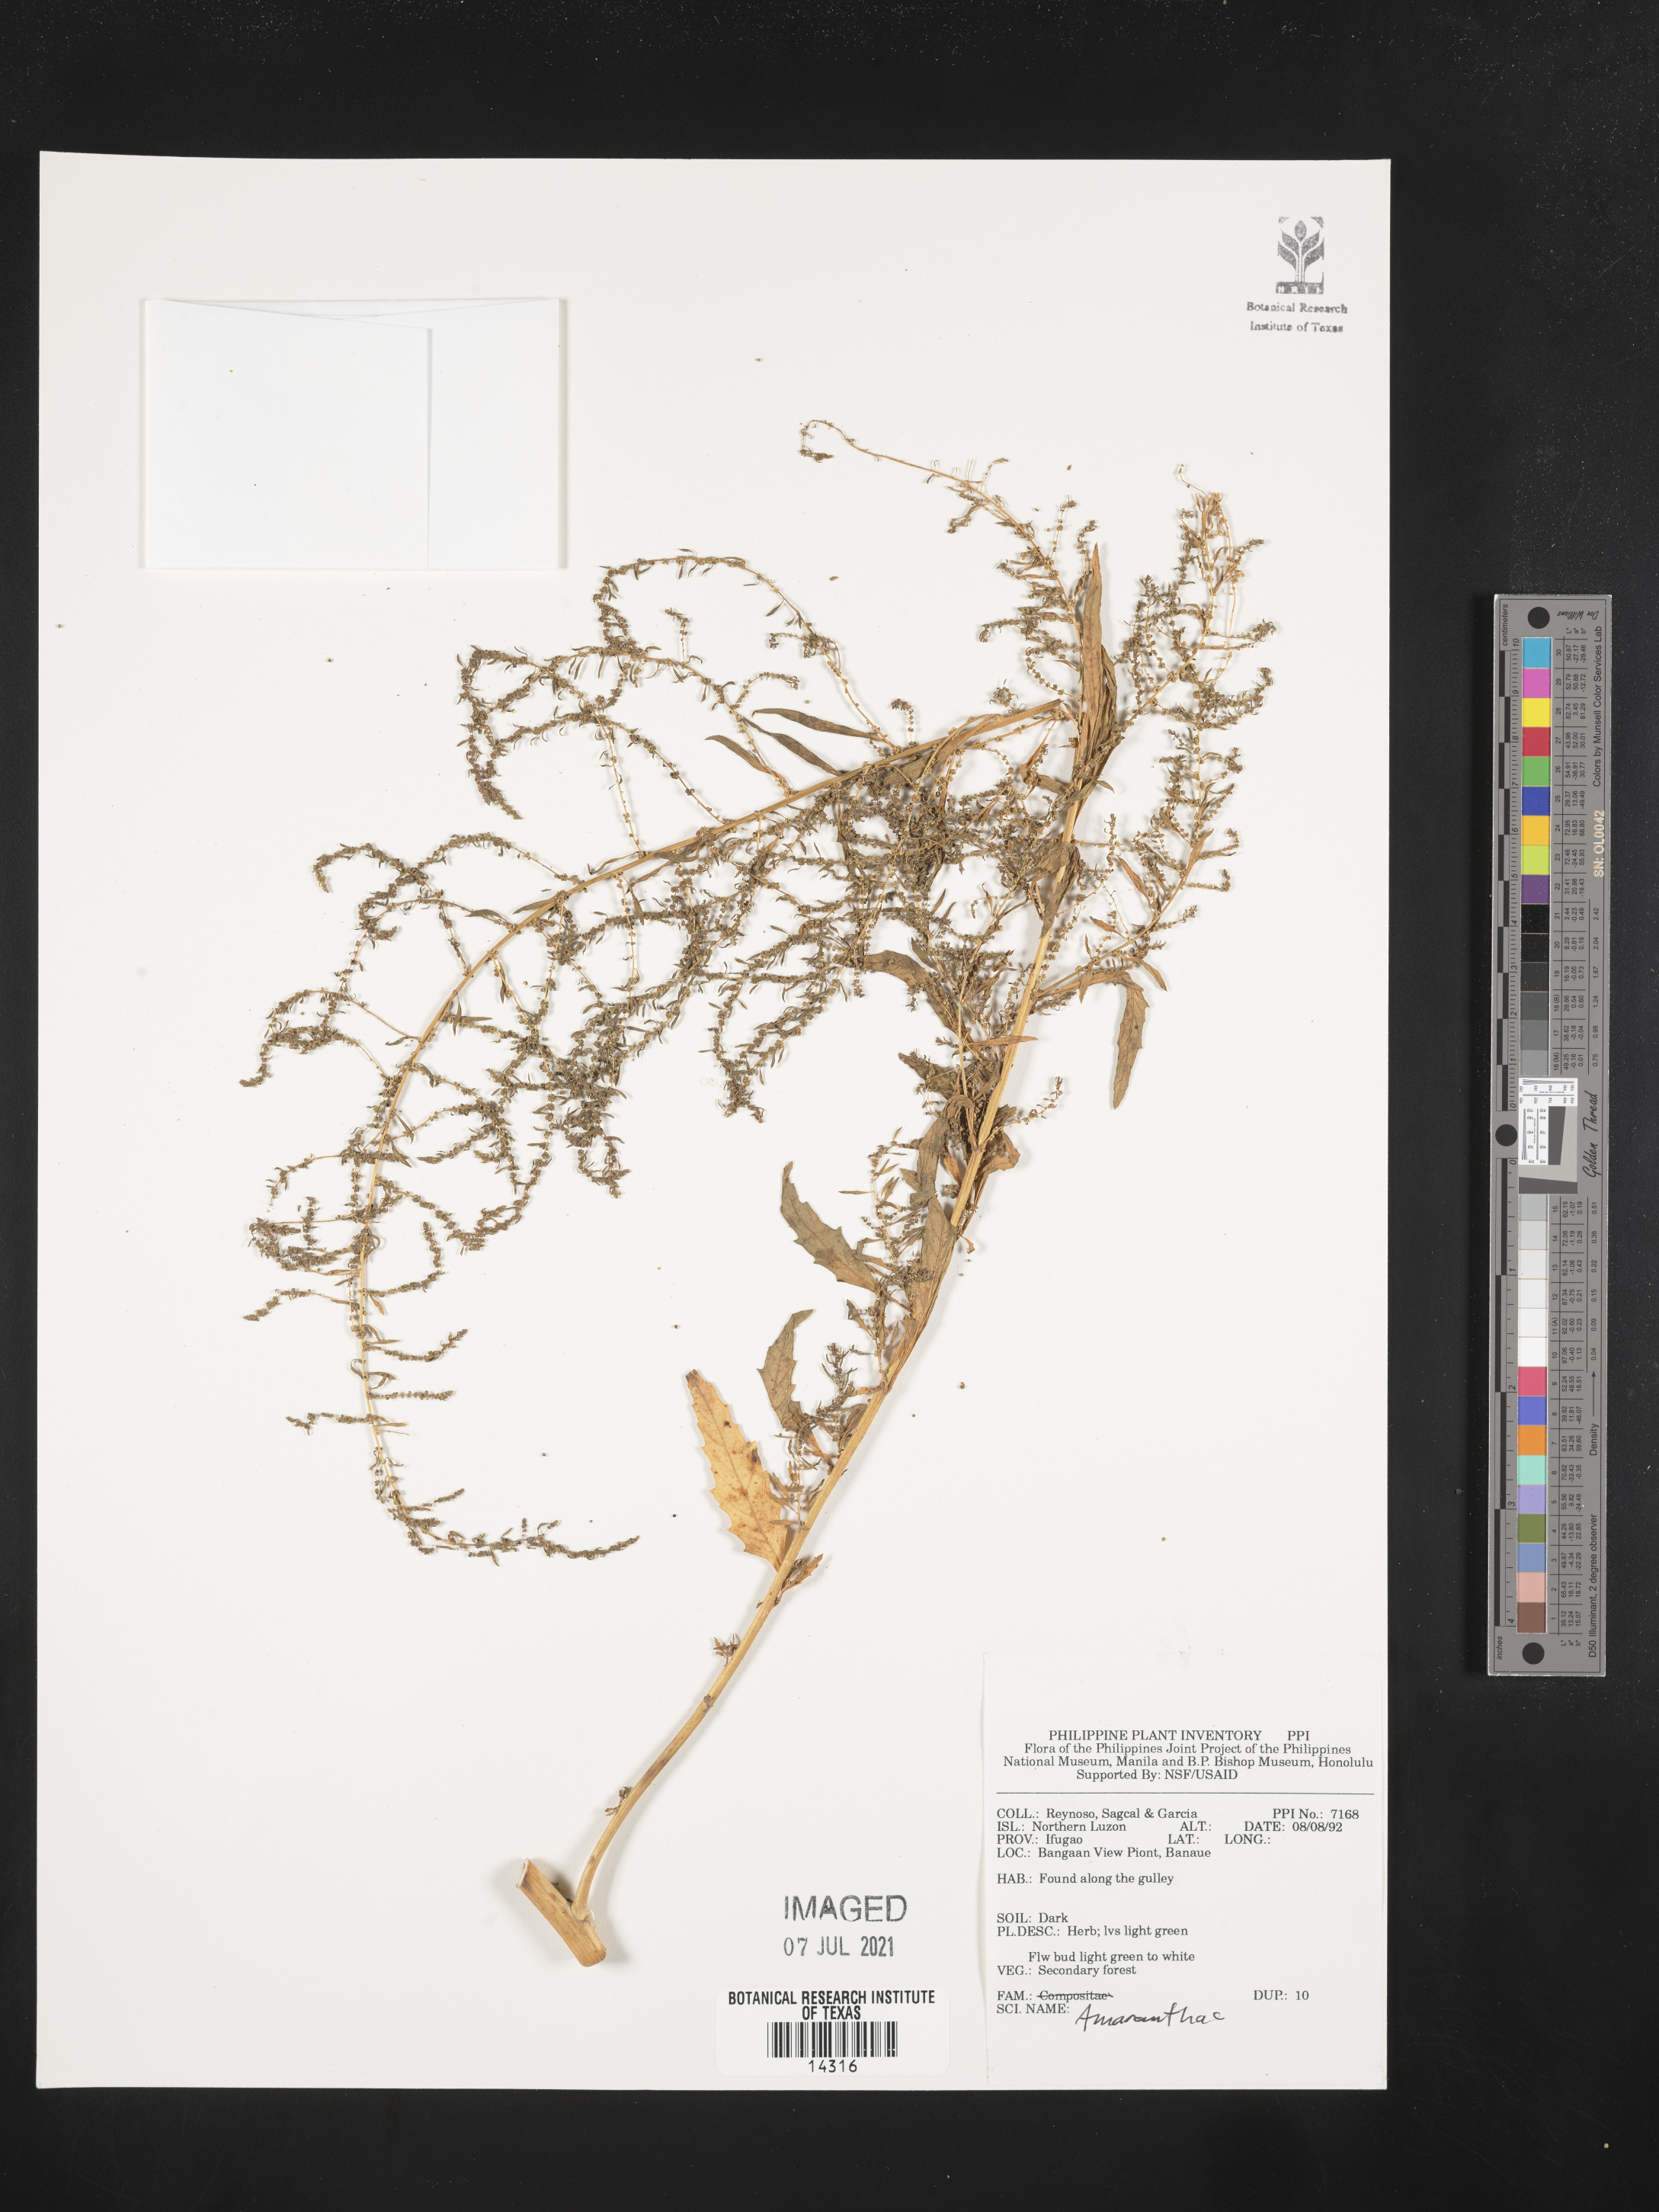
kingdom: Plantae
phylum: Tracheophyta
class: Magnoliopsida
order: Caryophyllales
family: Amaranthaceae
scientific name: Amaranthaceae
